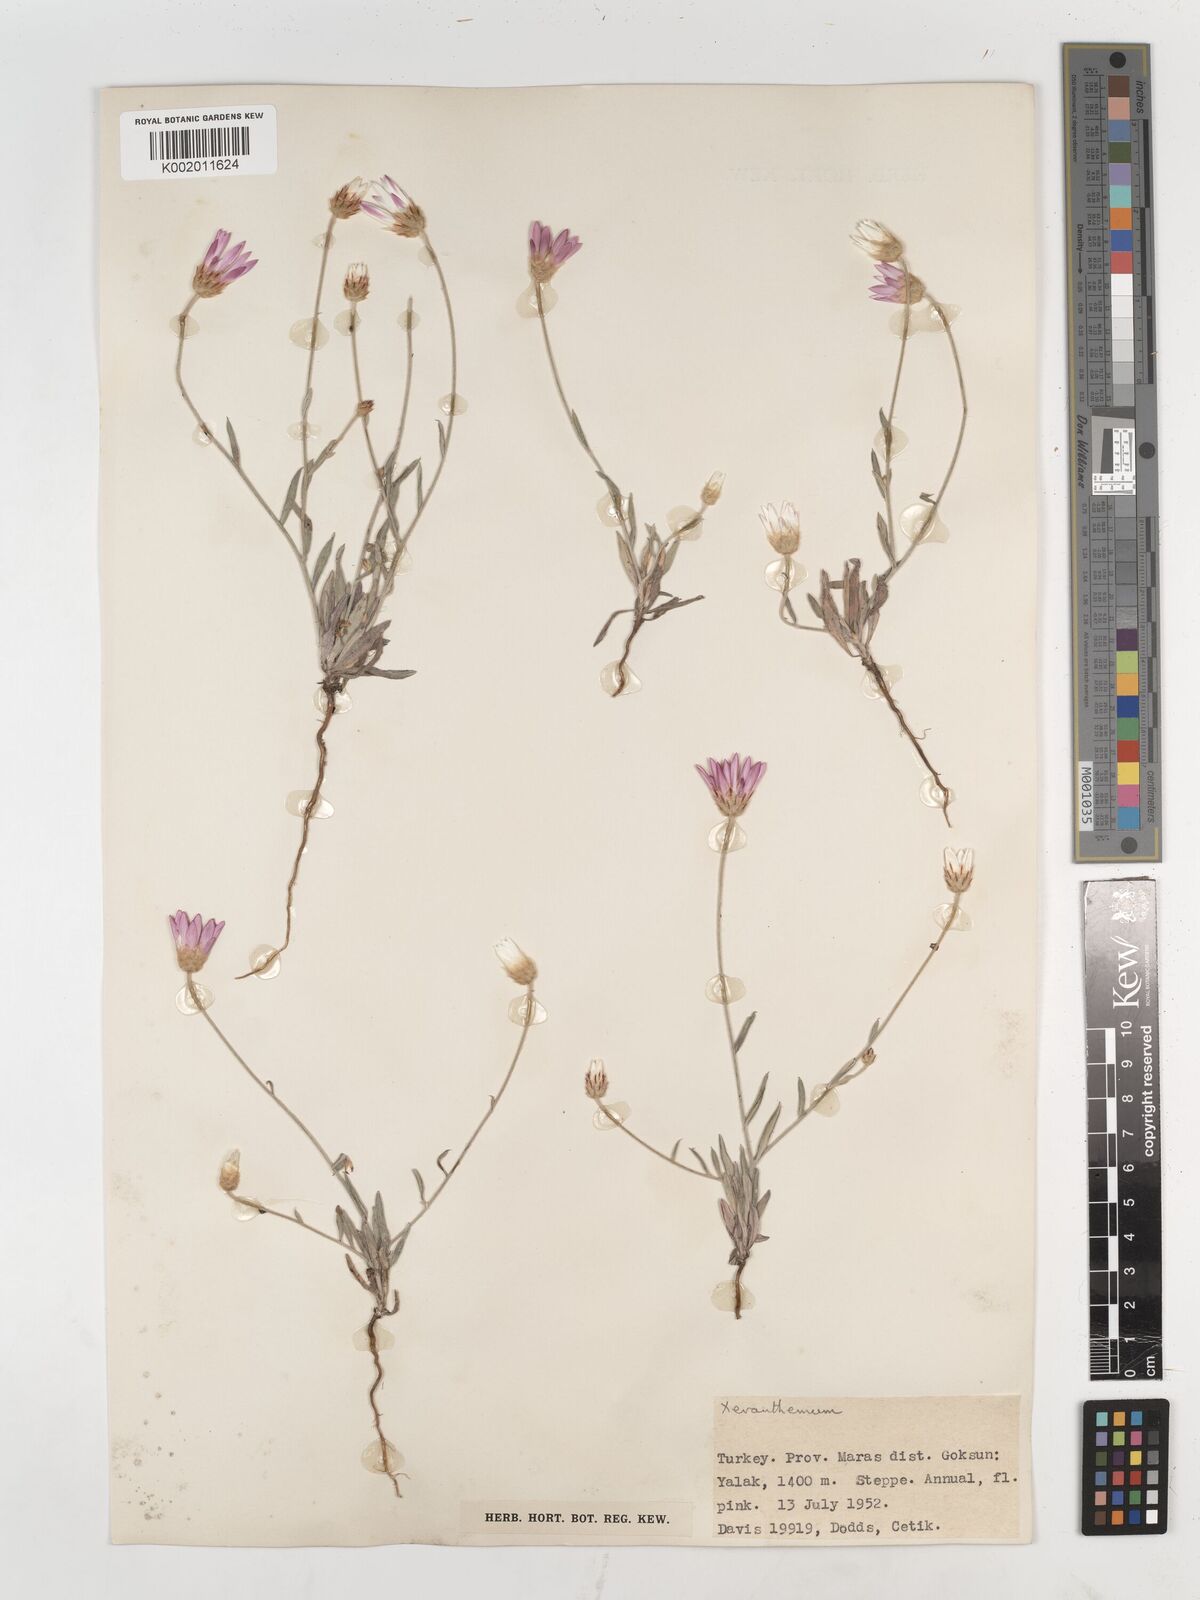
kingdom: Plantae
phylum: Tracheophyta
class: Magnoliopsida
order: Asterales
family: Asteraceae
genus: Xeranthemum
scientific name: Xeranthemum annuum
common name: Immortelle
